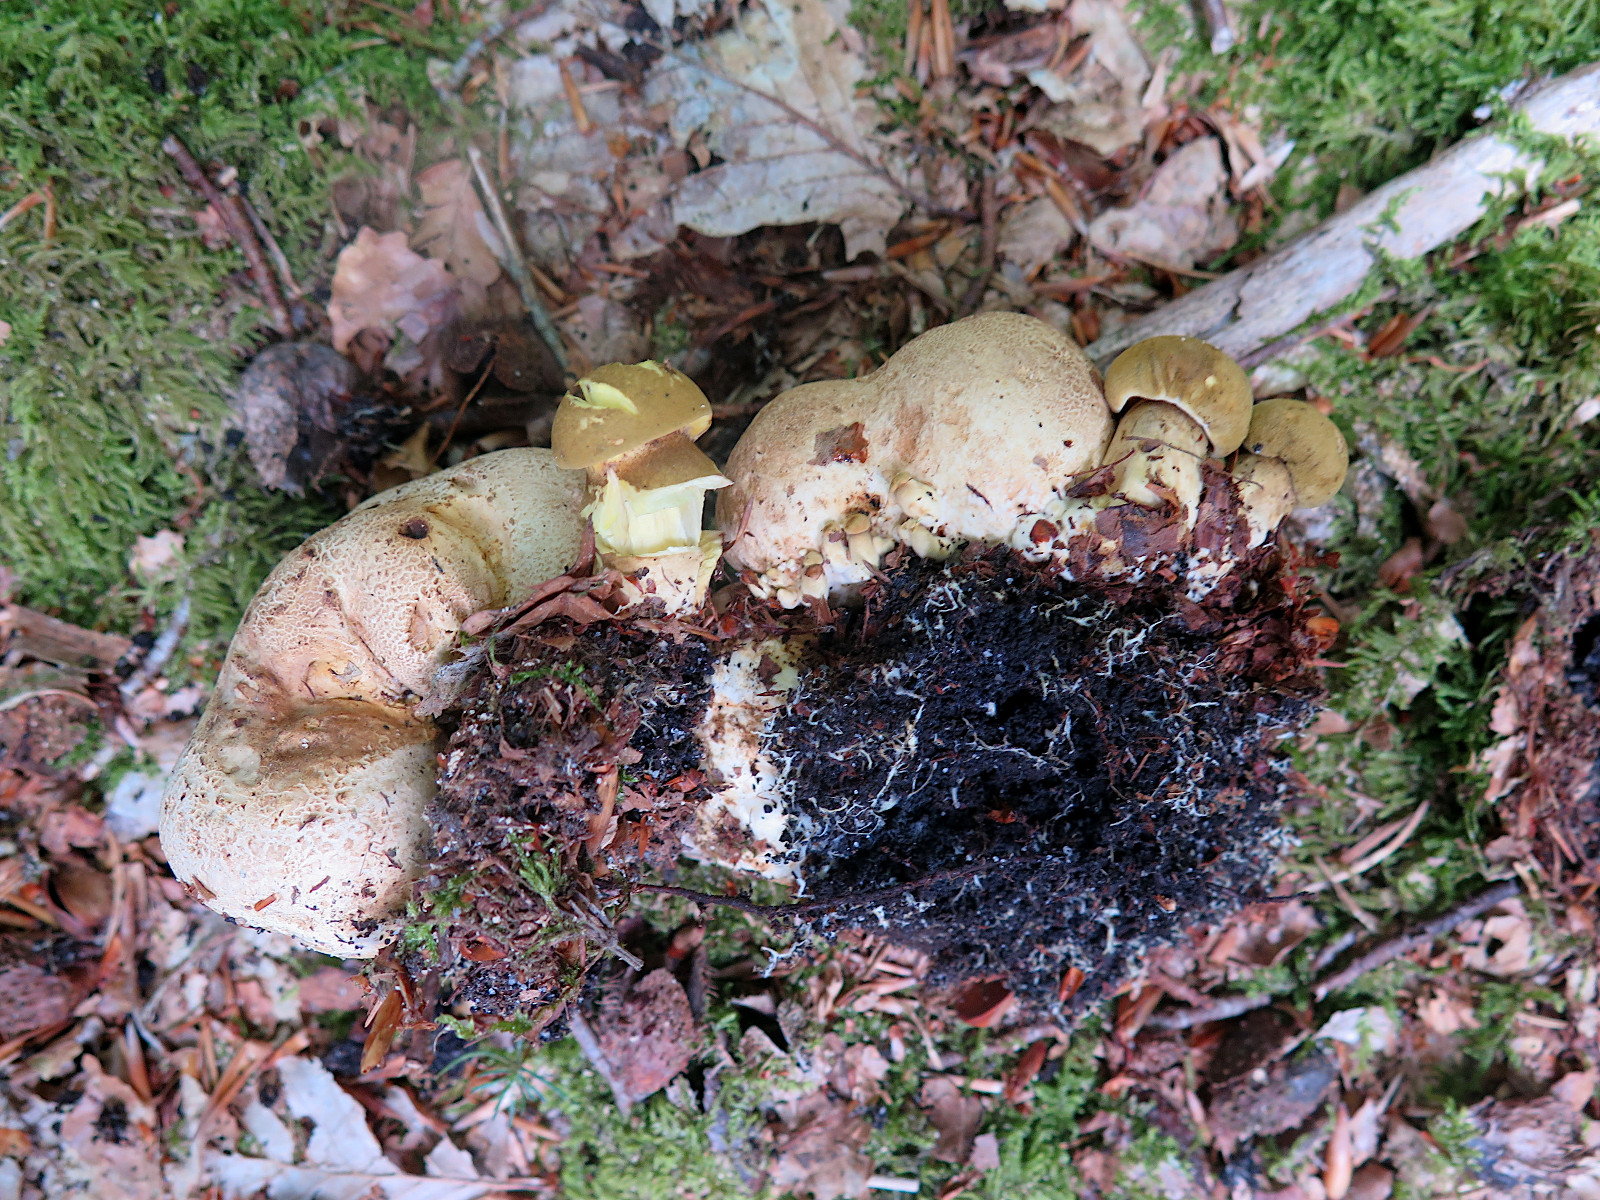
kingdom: Fungi
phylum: Basidiomycota
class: Agaricomycetes
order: Boletales
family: Boletaceae
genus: Pseudoboletus
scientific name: Pseudoboletus parasiticus
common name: snyltende rørhat
